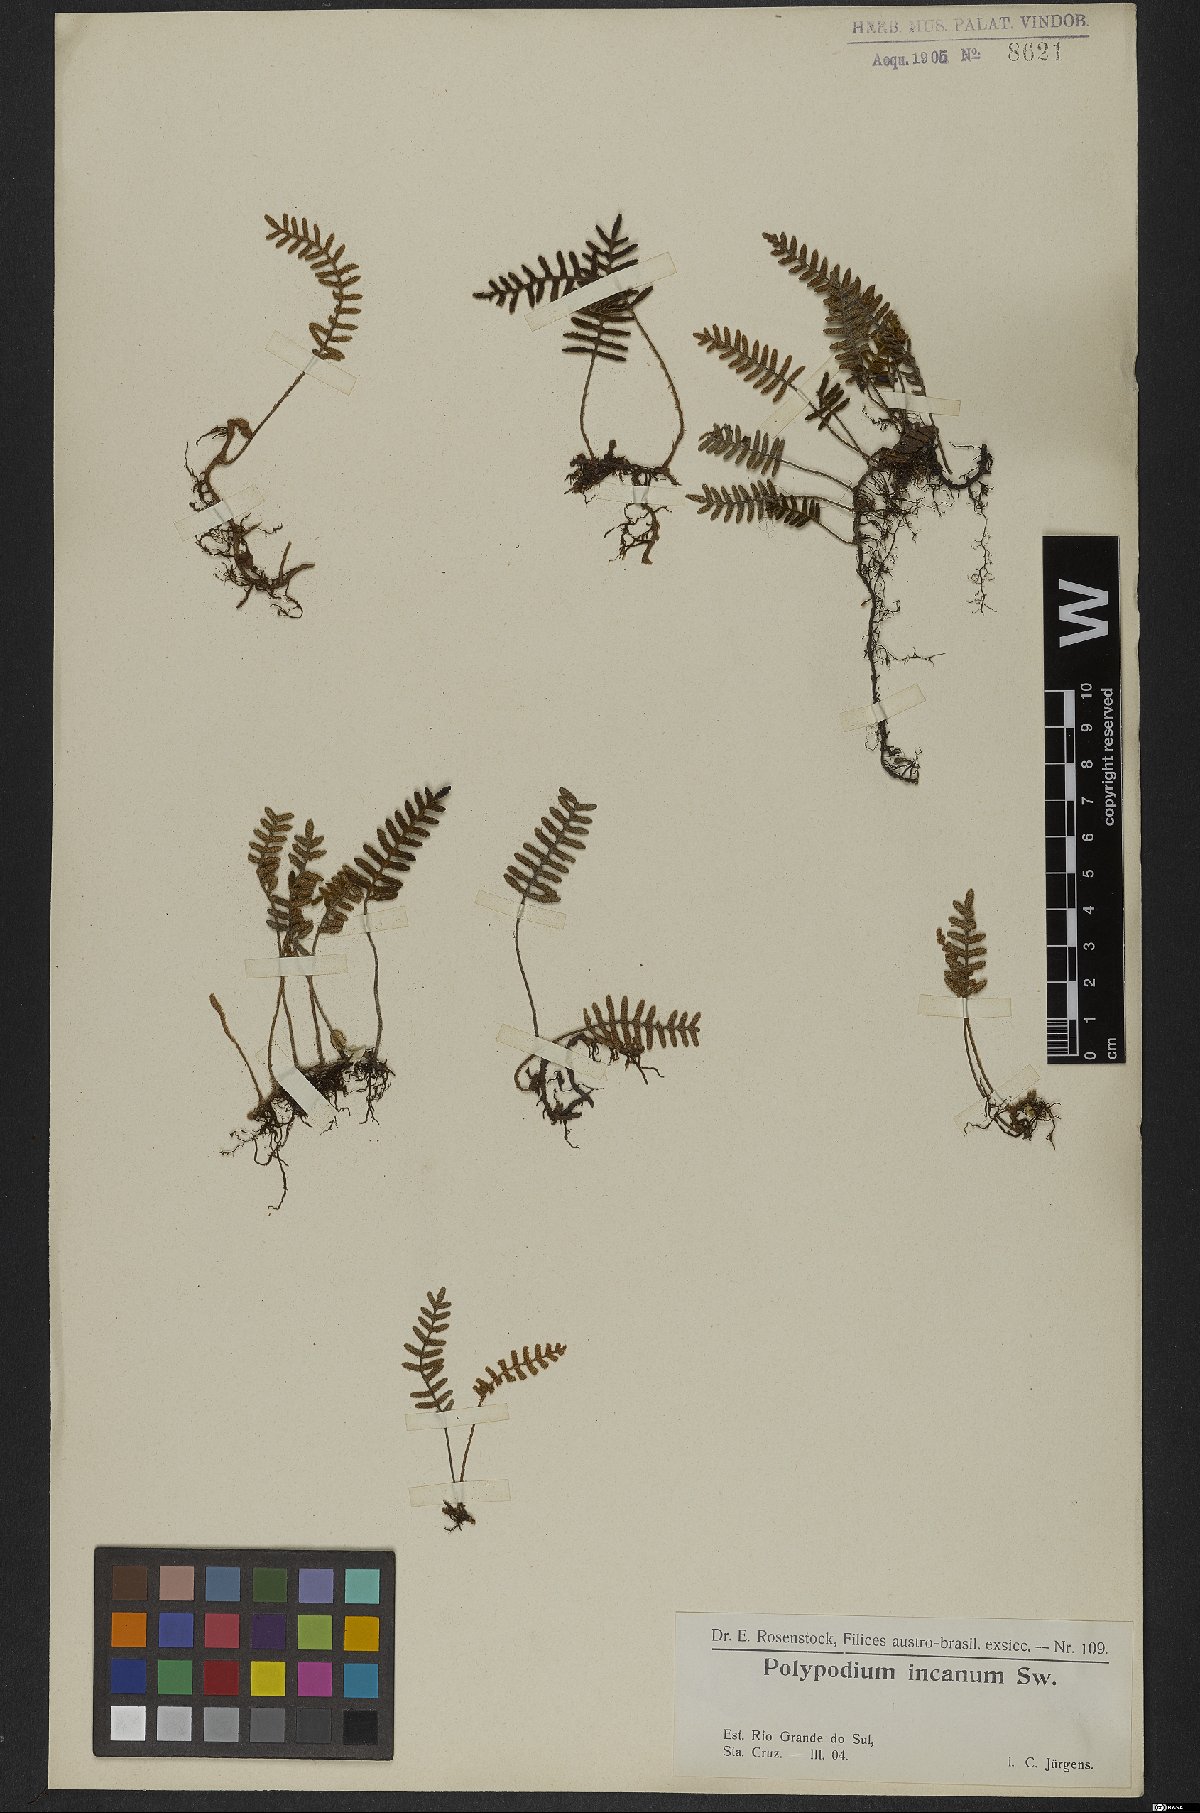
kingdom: Plantae
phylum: Tracheophyta
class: Polypodiopsida
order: Polypodiales
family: Polypodiaceae
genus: Pleopeltis
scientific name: Pleopeltis polypodioides
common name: Resurrection fern
